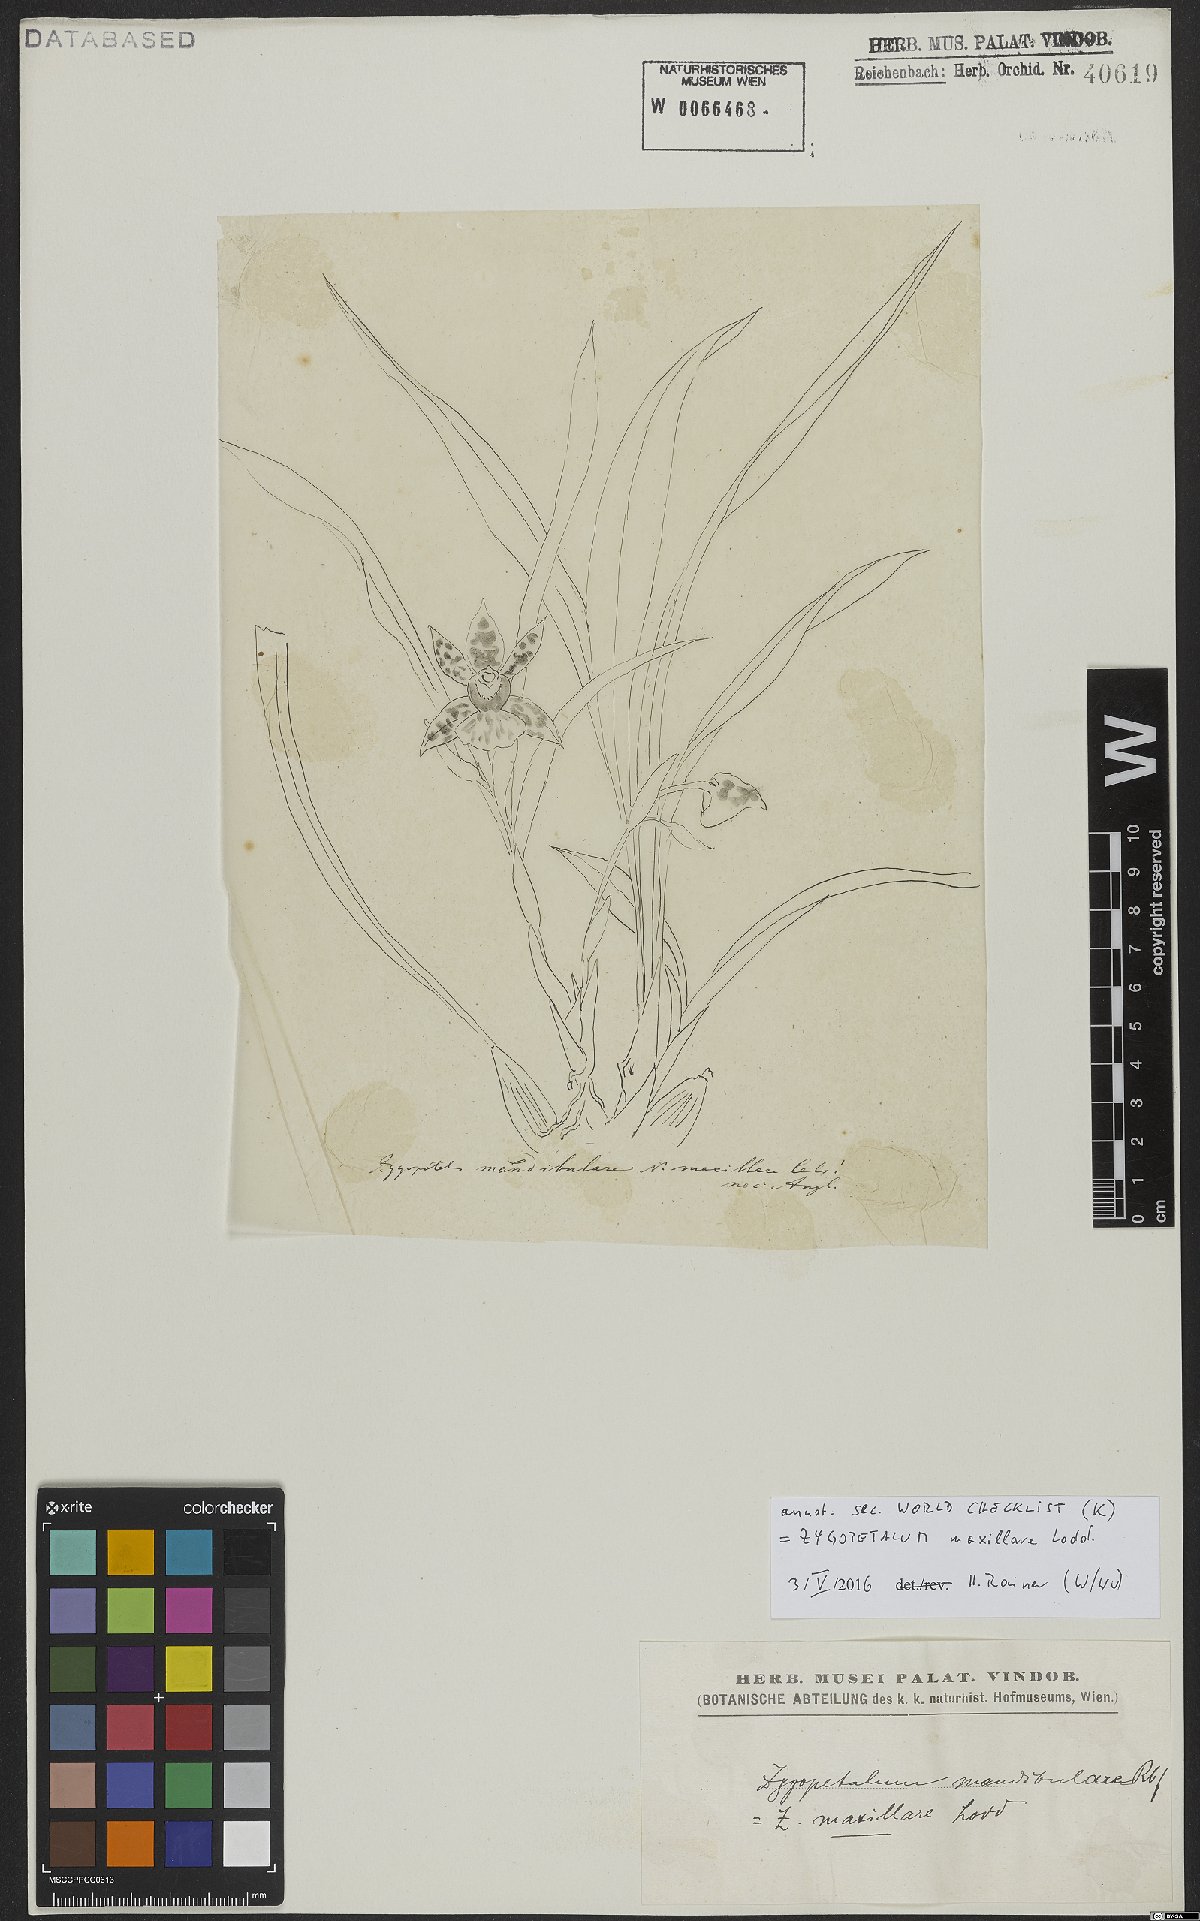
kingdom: Plantae
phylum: Tracheophyta
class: Liliopsida
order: Asparagales
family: Orchidaceae
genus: Zygopetalum
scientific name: Zygopetalum maxillare
